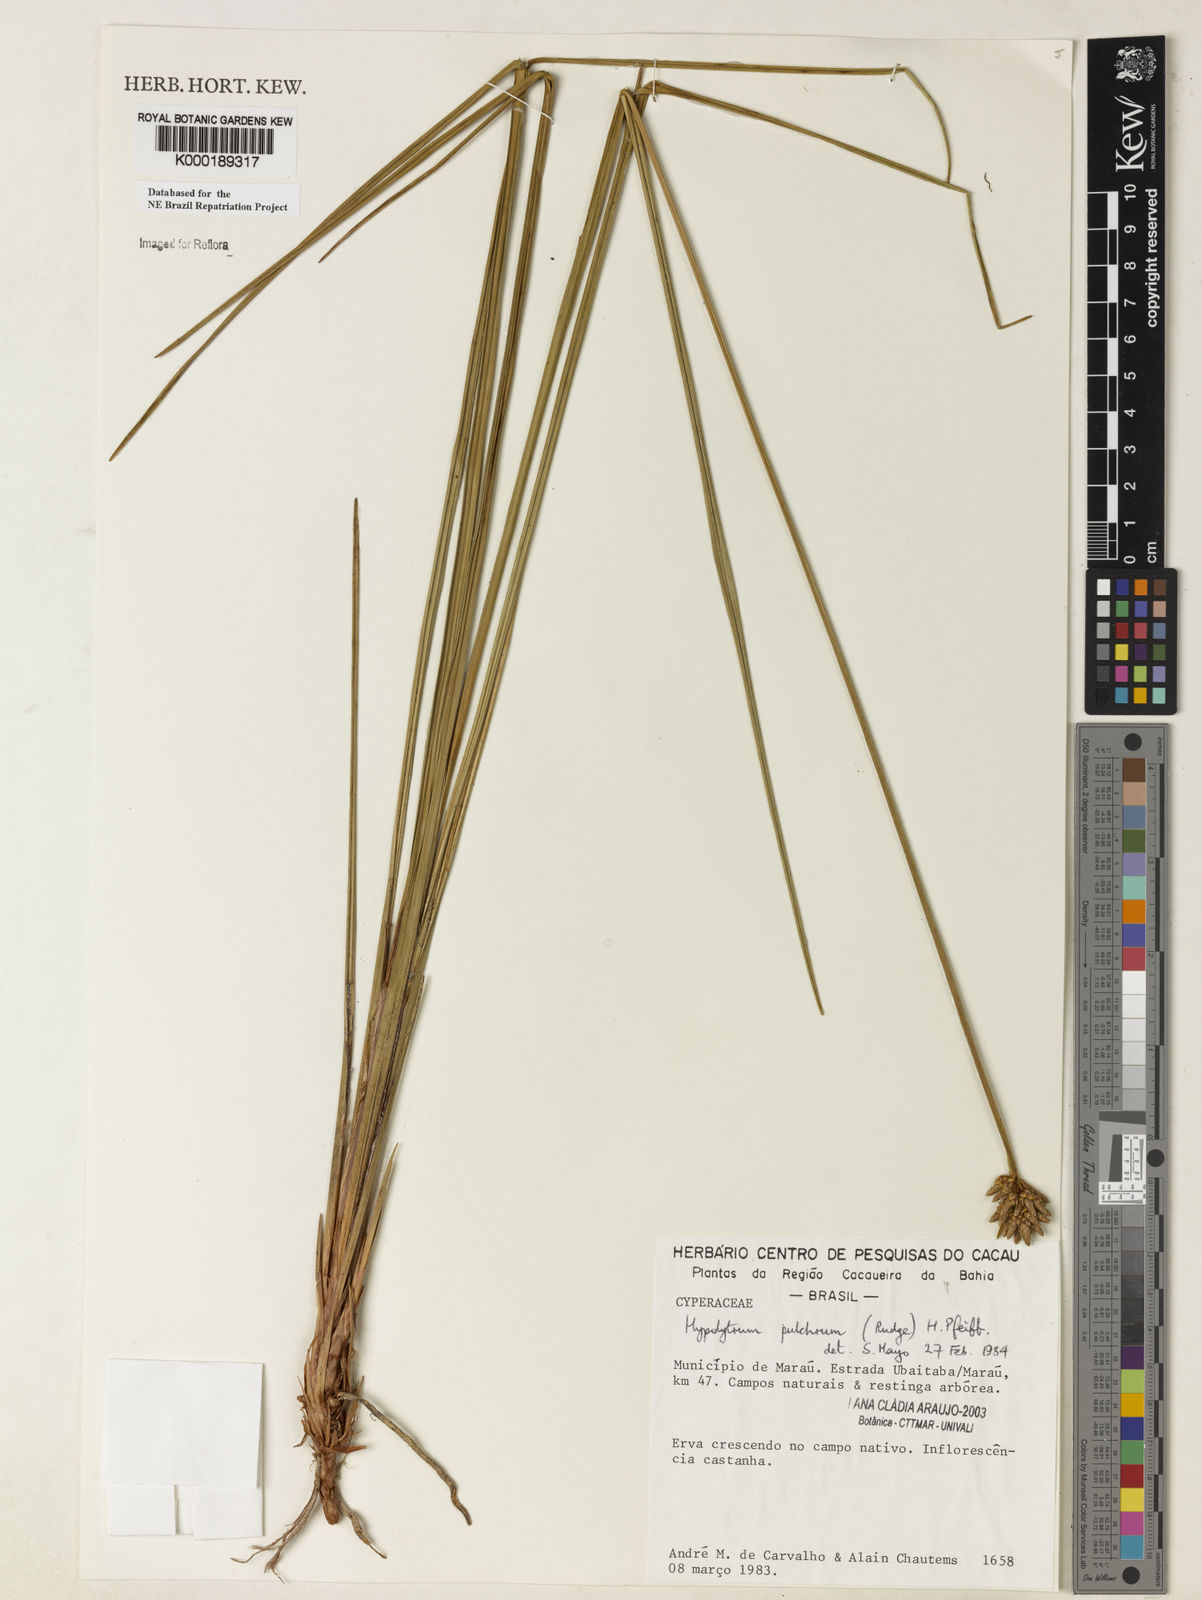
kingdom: Plantae
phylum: Tracheophyta
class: Liliopsida
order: Poales
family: Cyperaceae
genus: Hypolytrum
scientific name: Hypolytrum pulchrum
